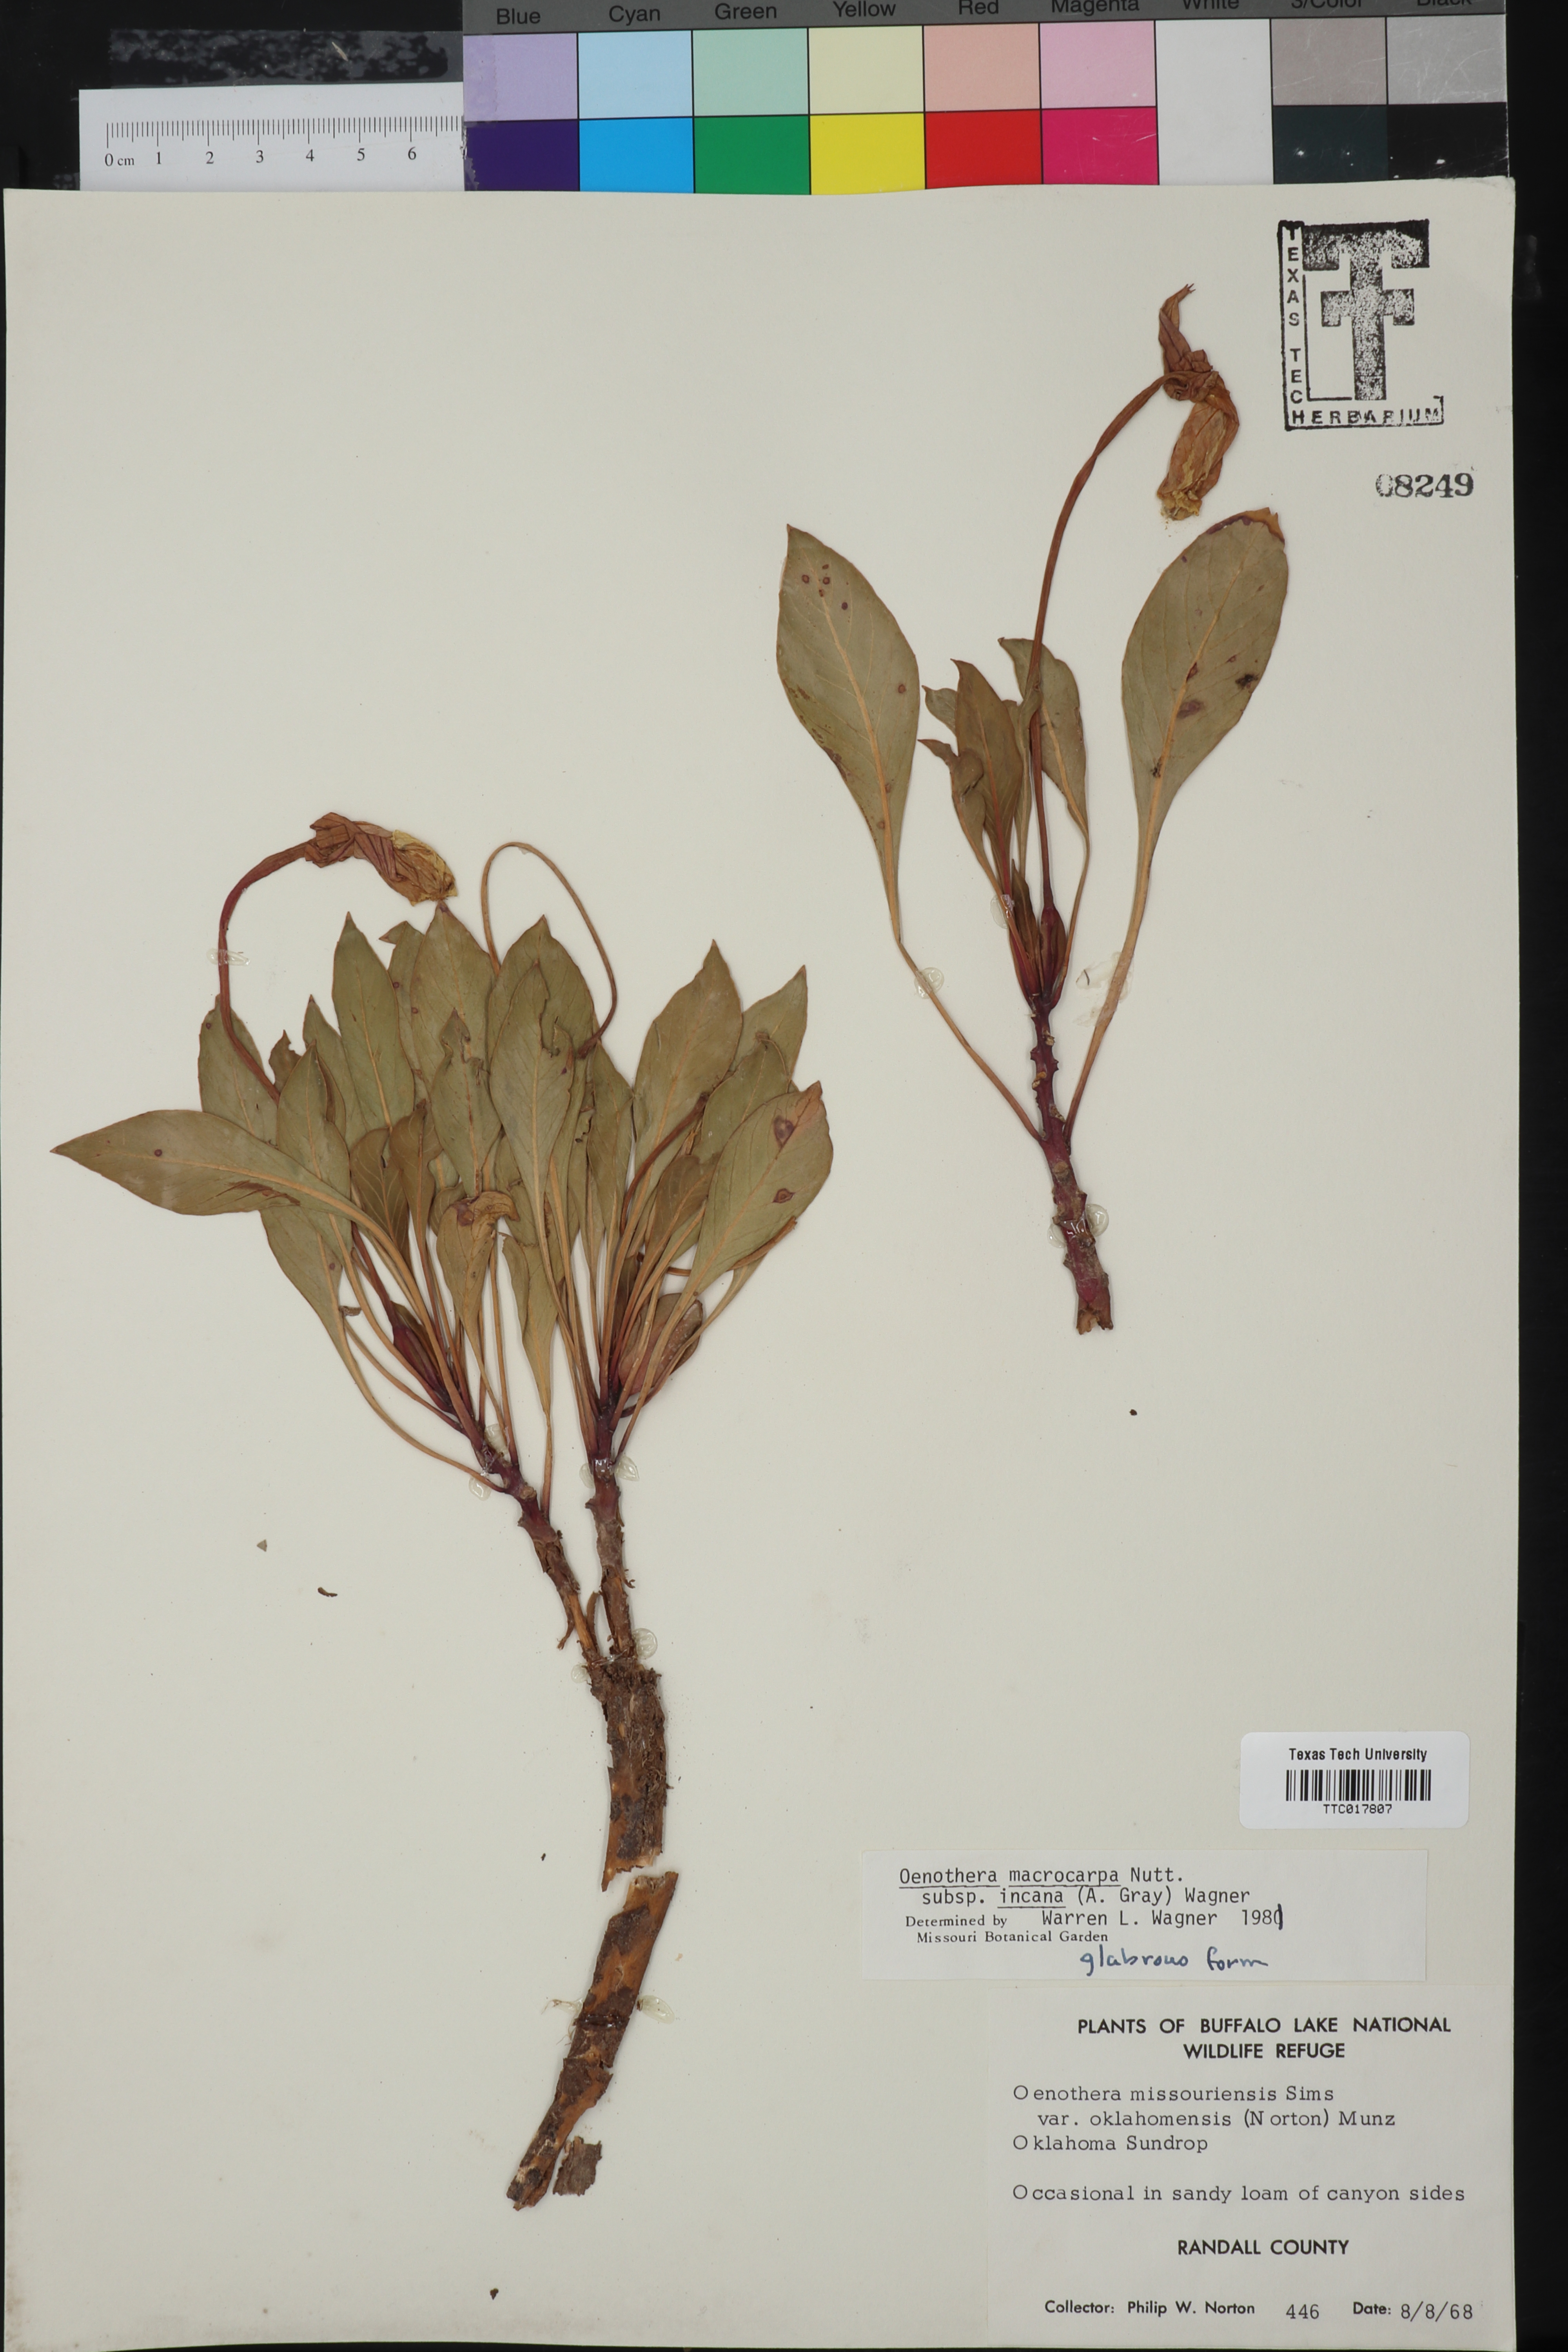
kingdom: Plantae
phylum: Tracheophyta
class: Magnoliopsida
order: Myrtales
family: Onagraceae
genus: Oenothera
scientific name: Oenothera macrocarpa
